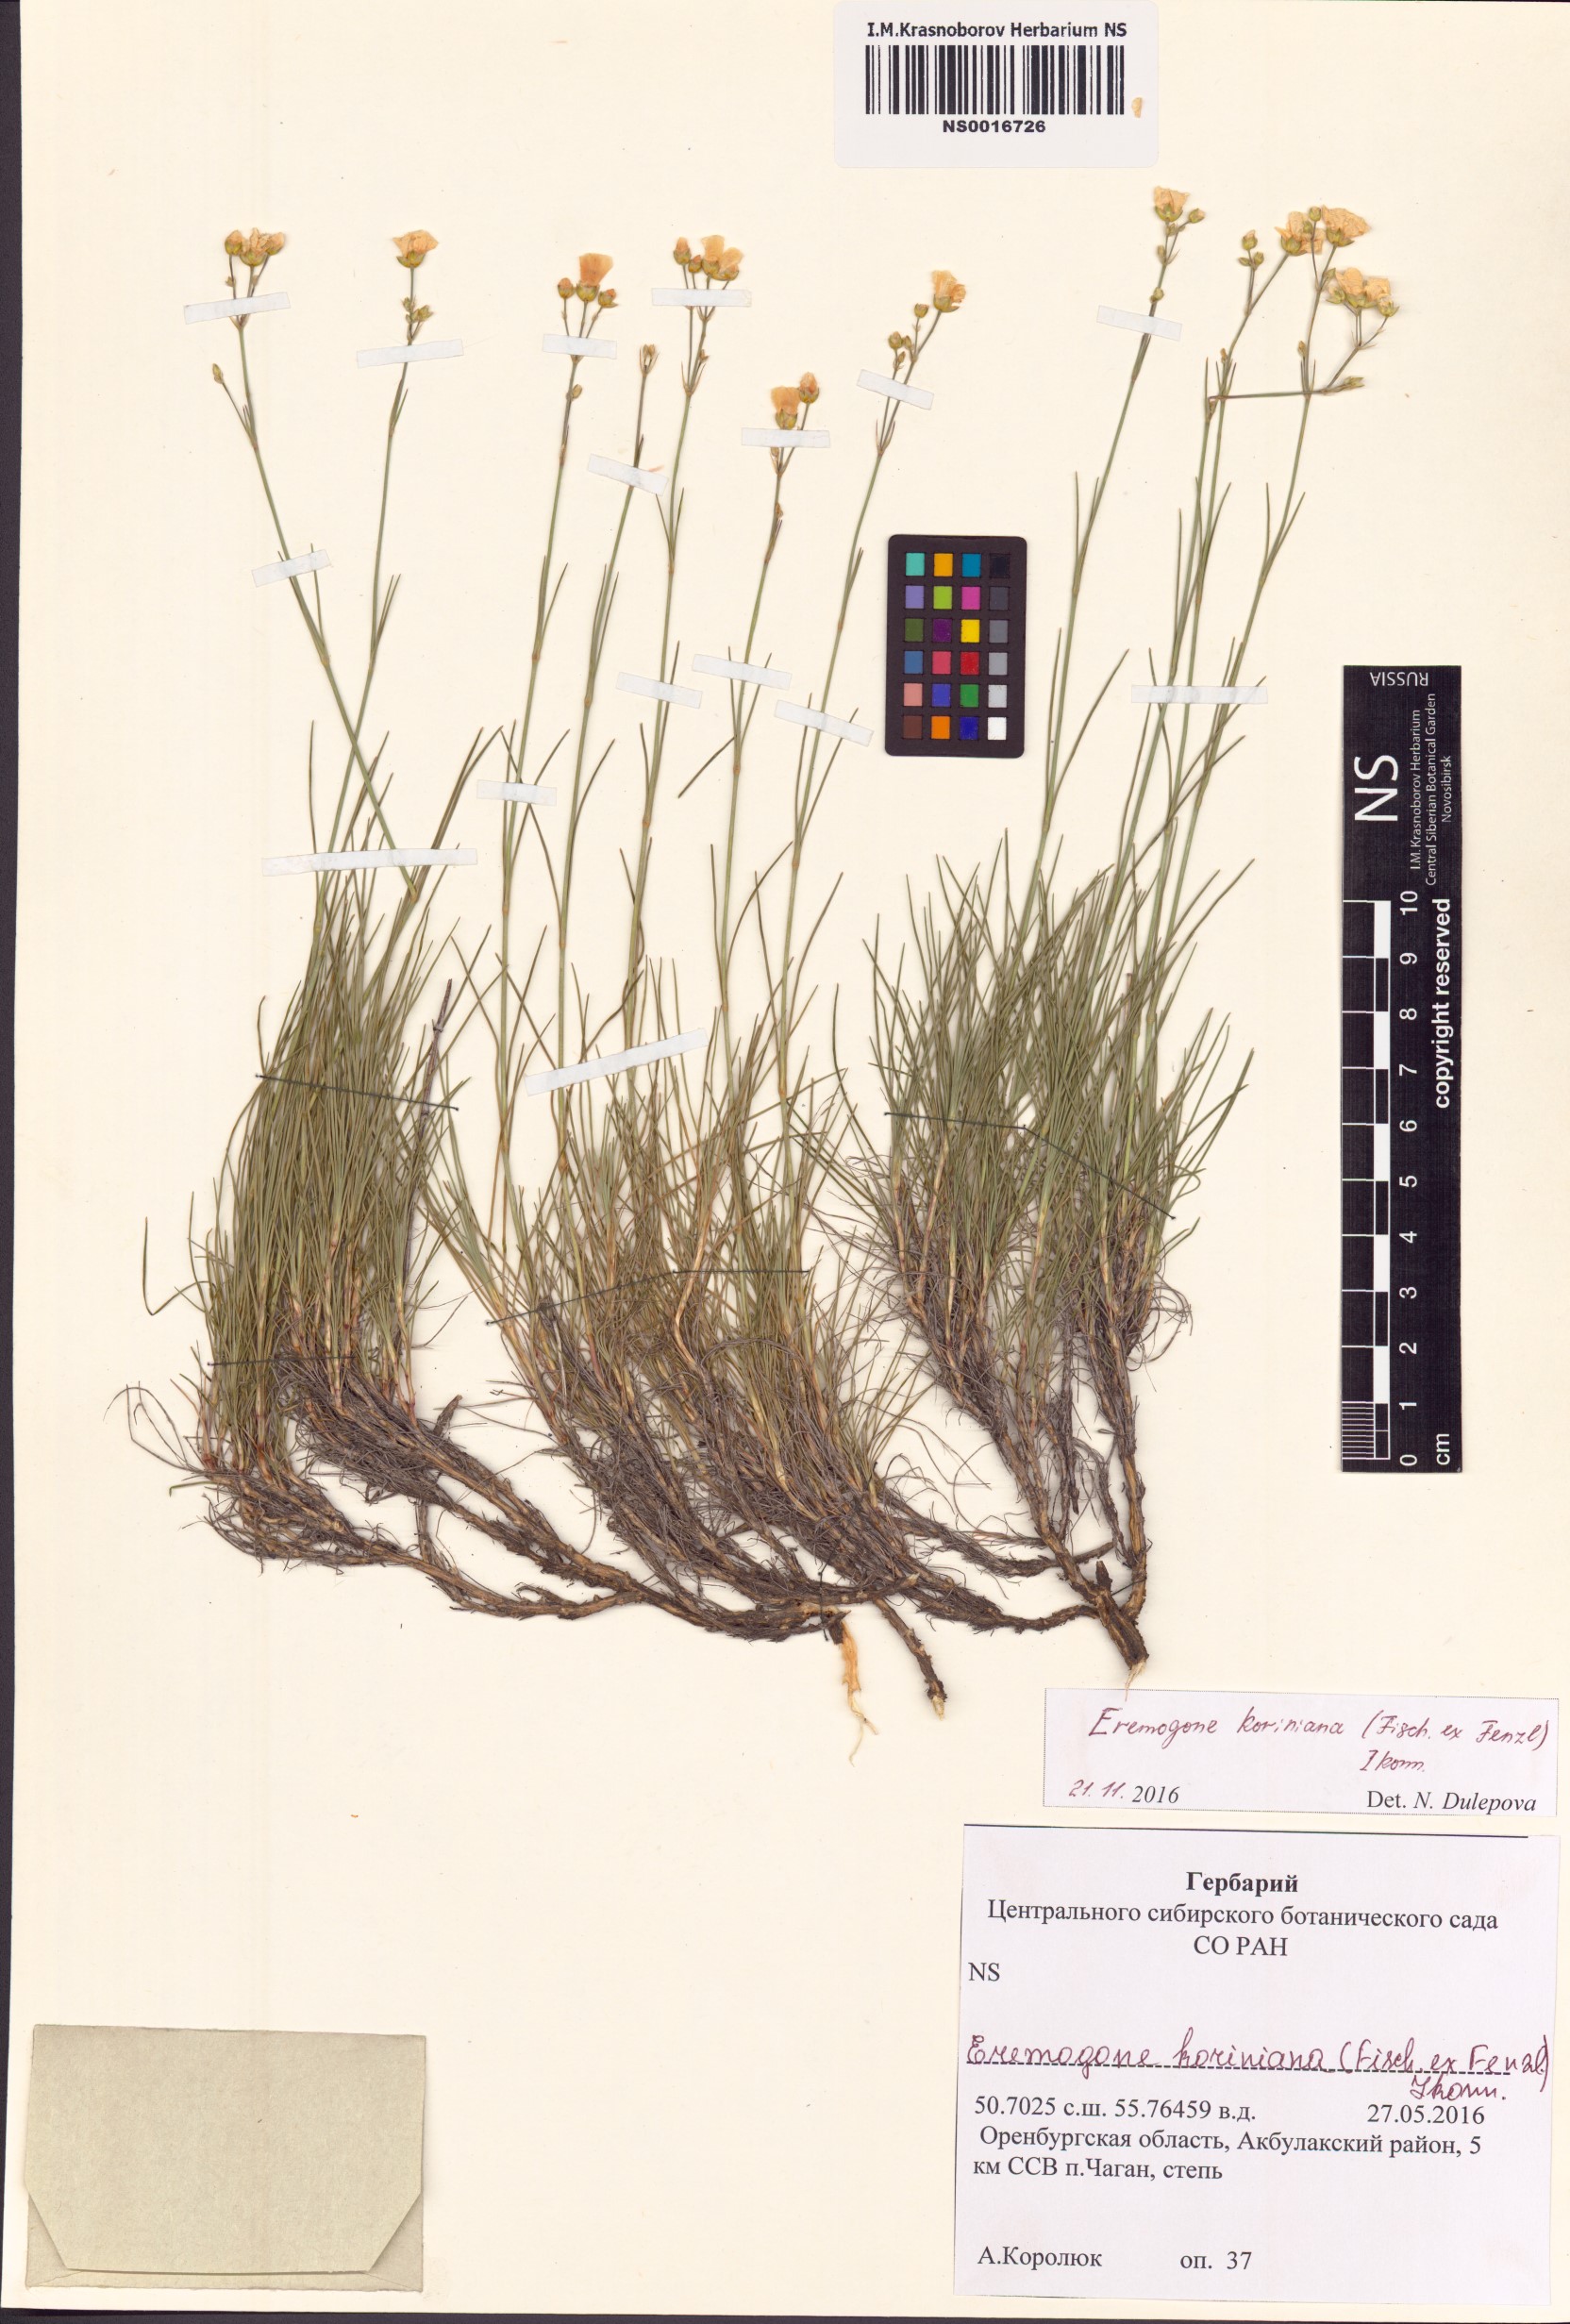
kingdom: Plantae
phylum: Tracheophyta
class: Magnoliopsida
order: Caryophyllales
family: Caryophyllaceae
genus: Eremogone
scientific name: Eremogone saxatilis
